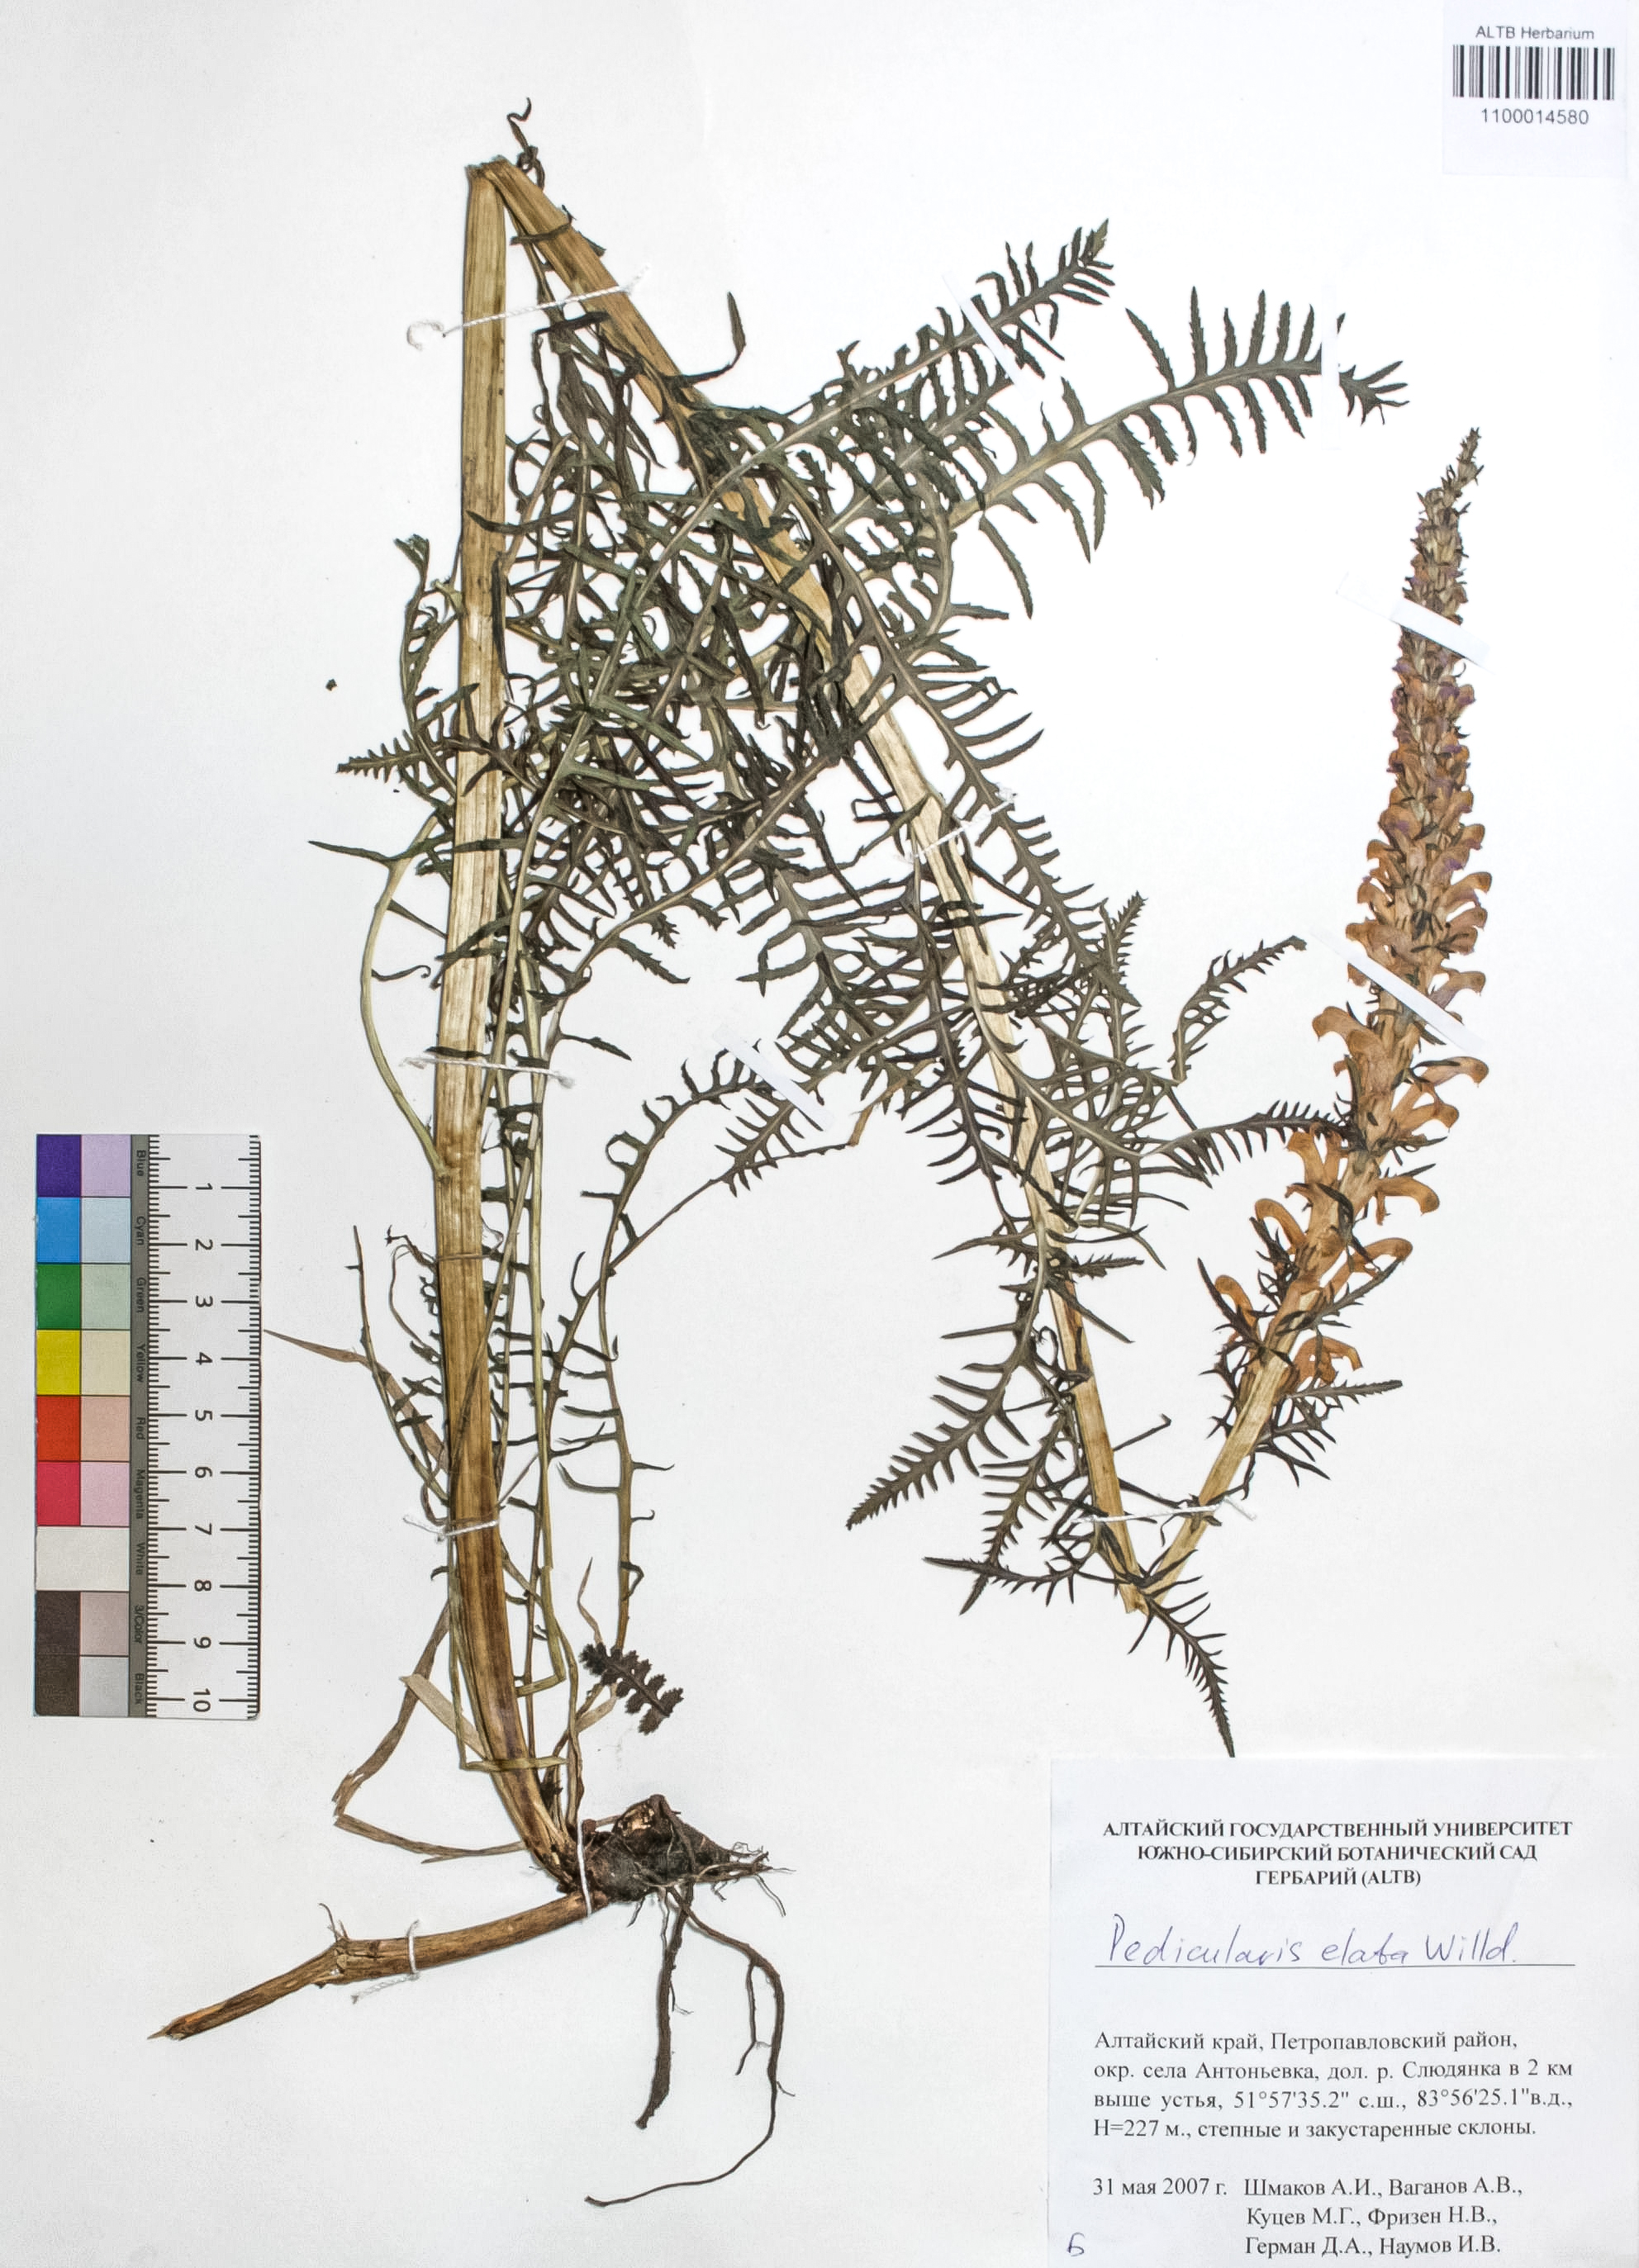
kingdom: Plantae
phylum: Tracheophyta
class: Magnoliopsida
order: Lamiales
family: Orobanchaceae
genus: Pedicularis
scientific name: Pedicularis elata
